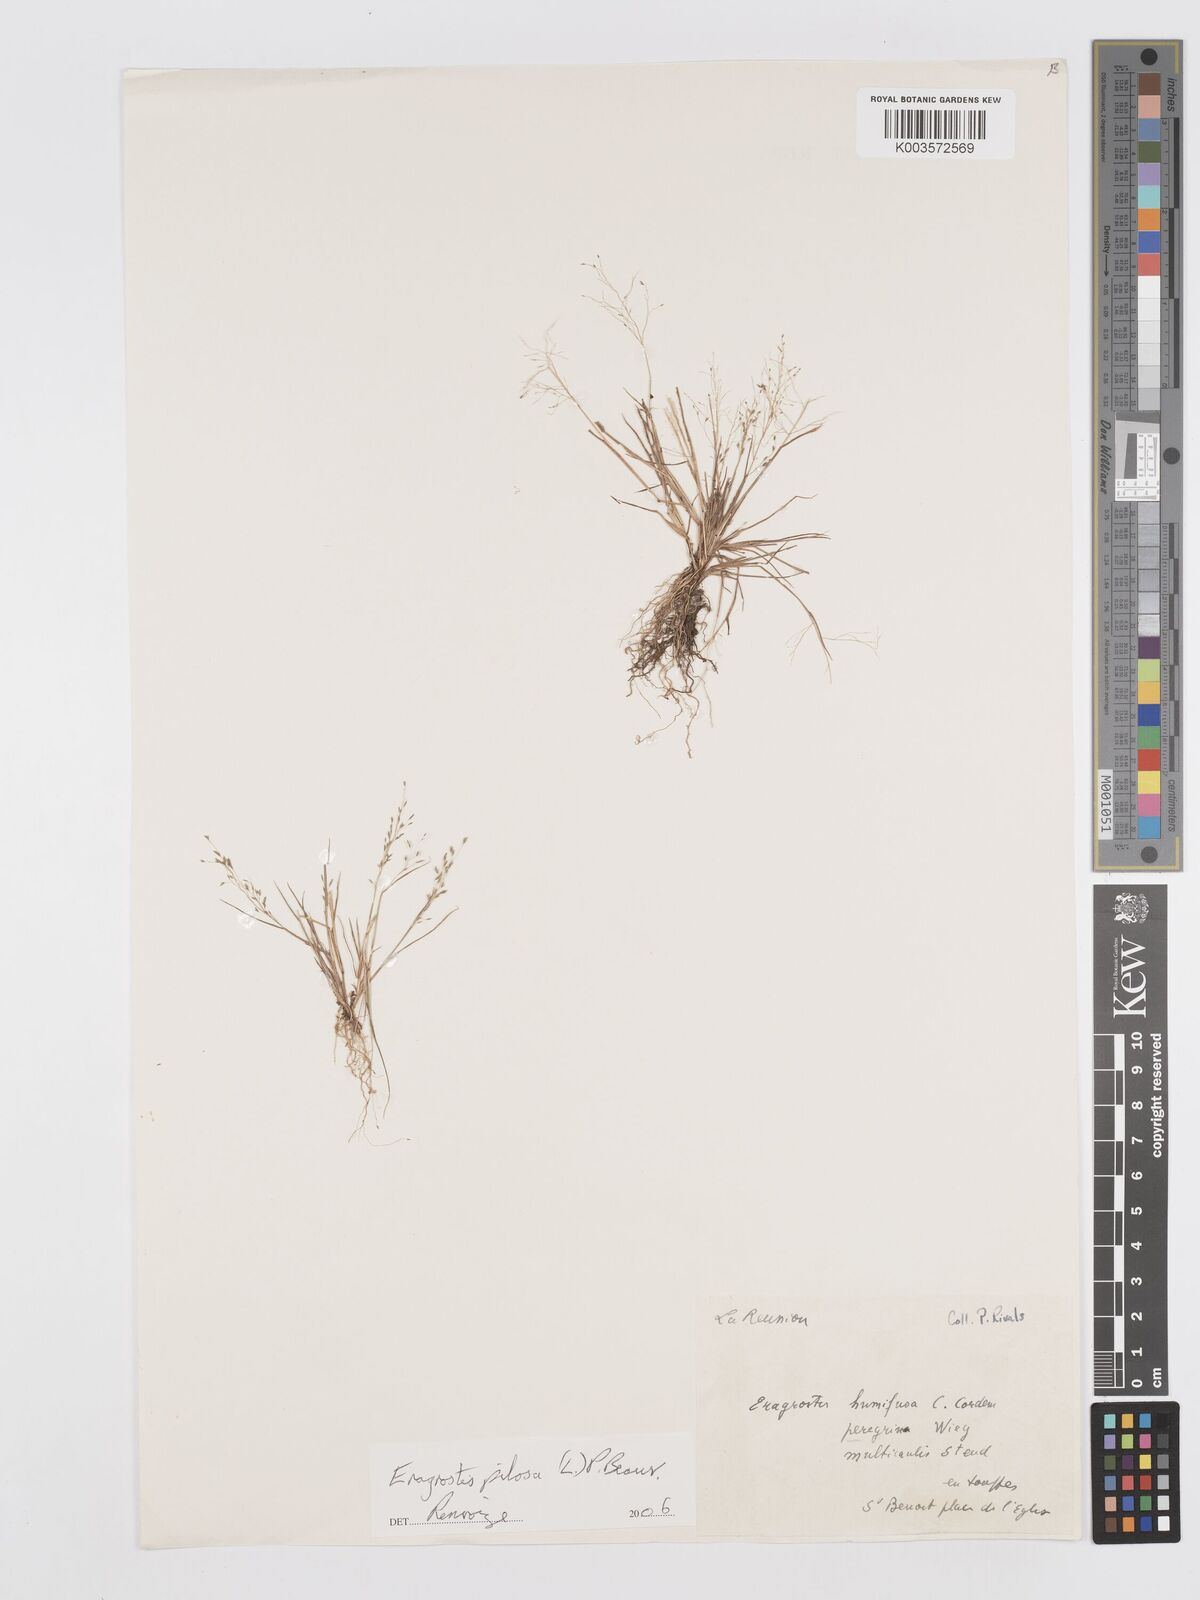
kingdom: Plantae
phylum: Tracheophyta
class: Liliopsida
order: Poales
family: Poaceae
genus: Eragrostis
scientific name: Eragrostis pilosa
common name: Indian lovegrass
